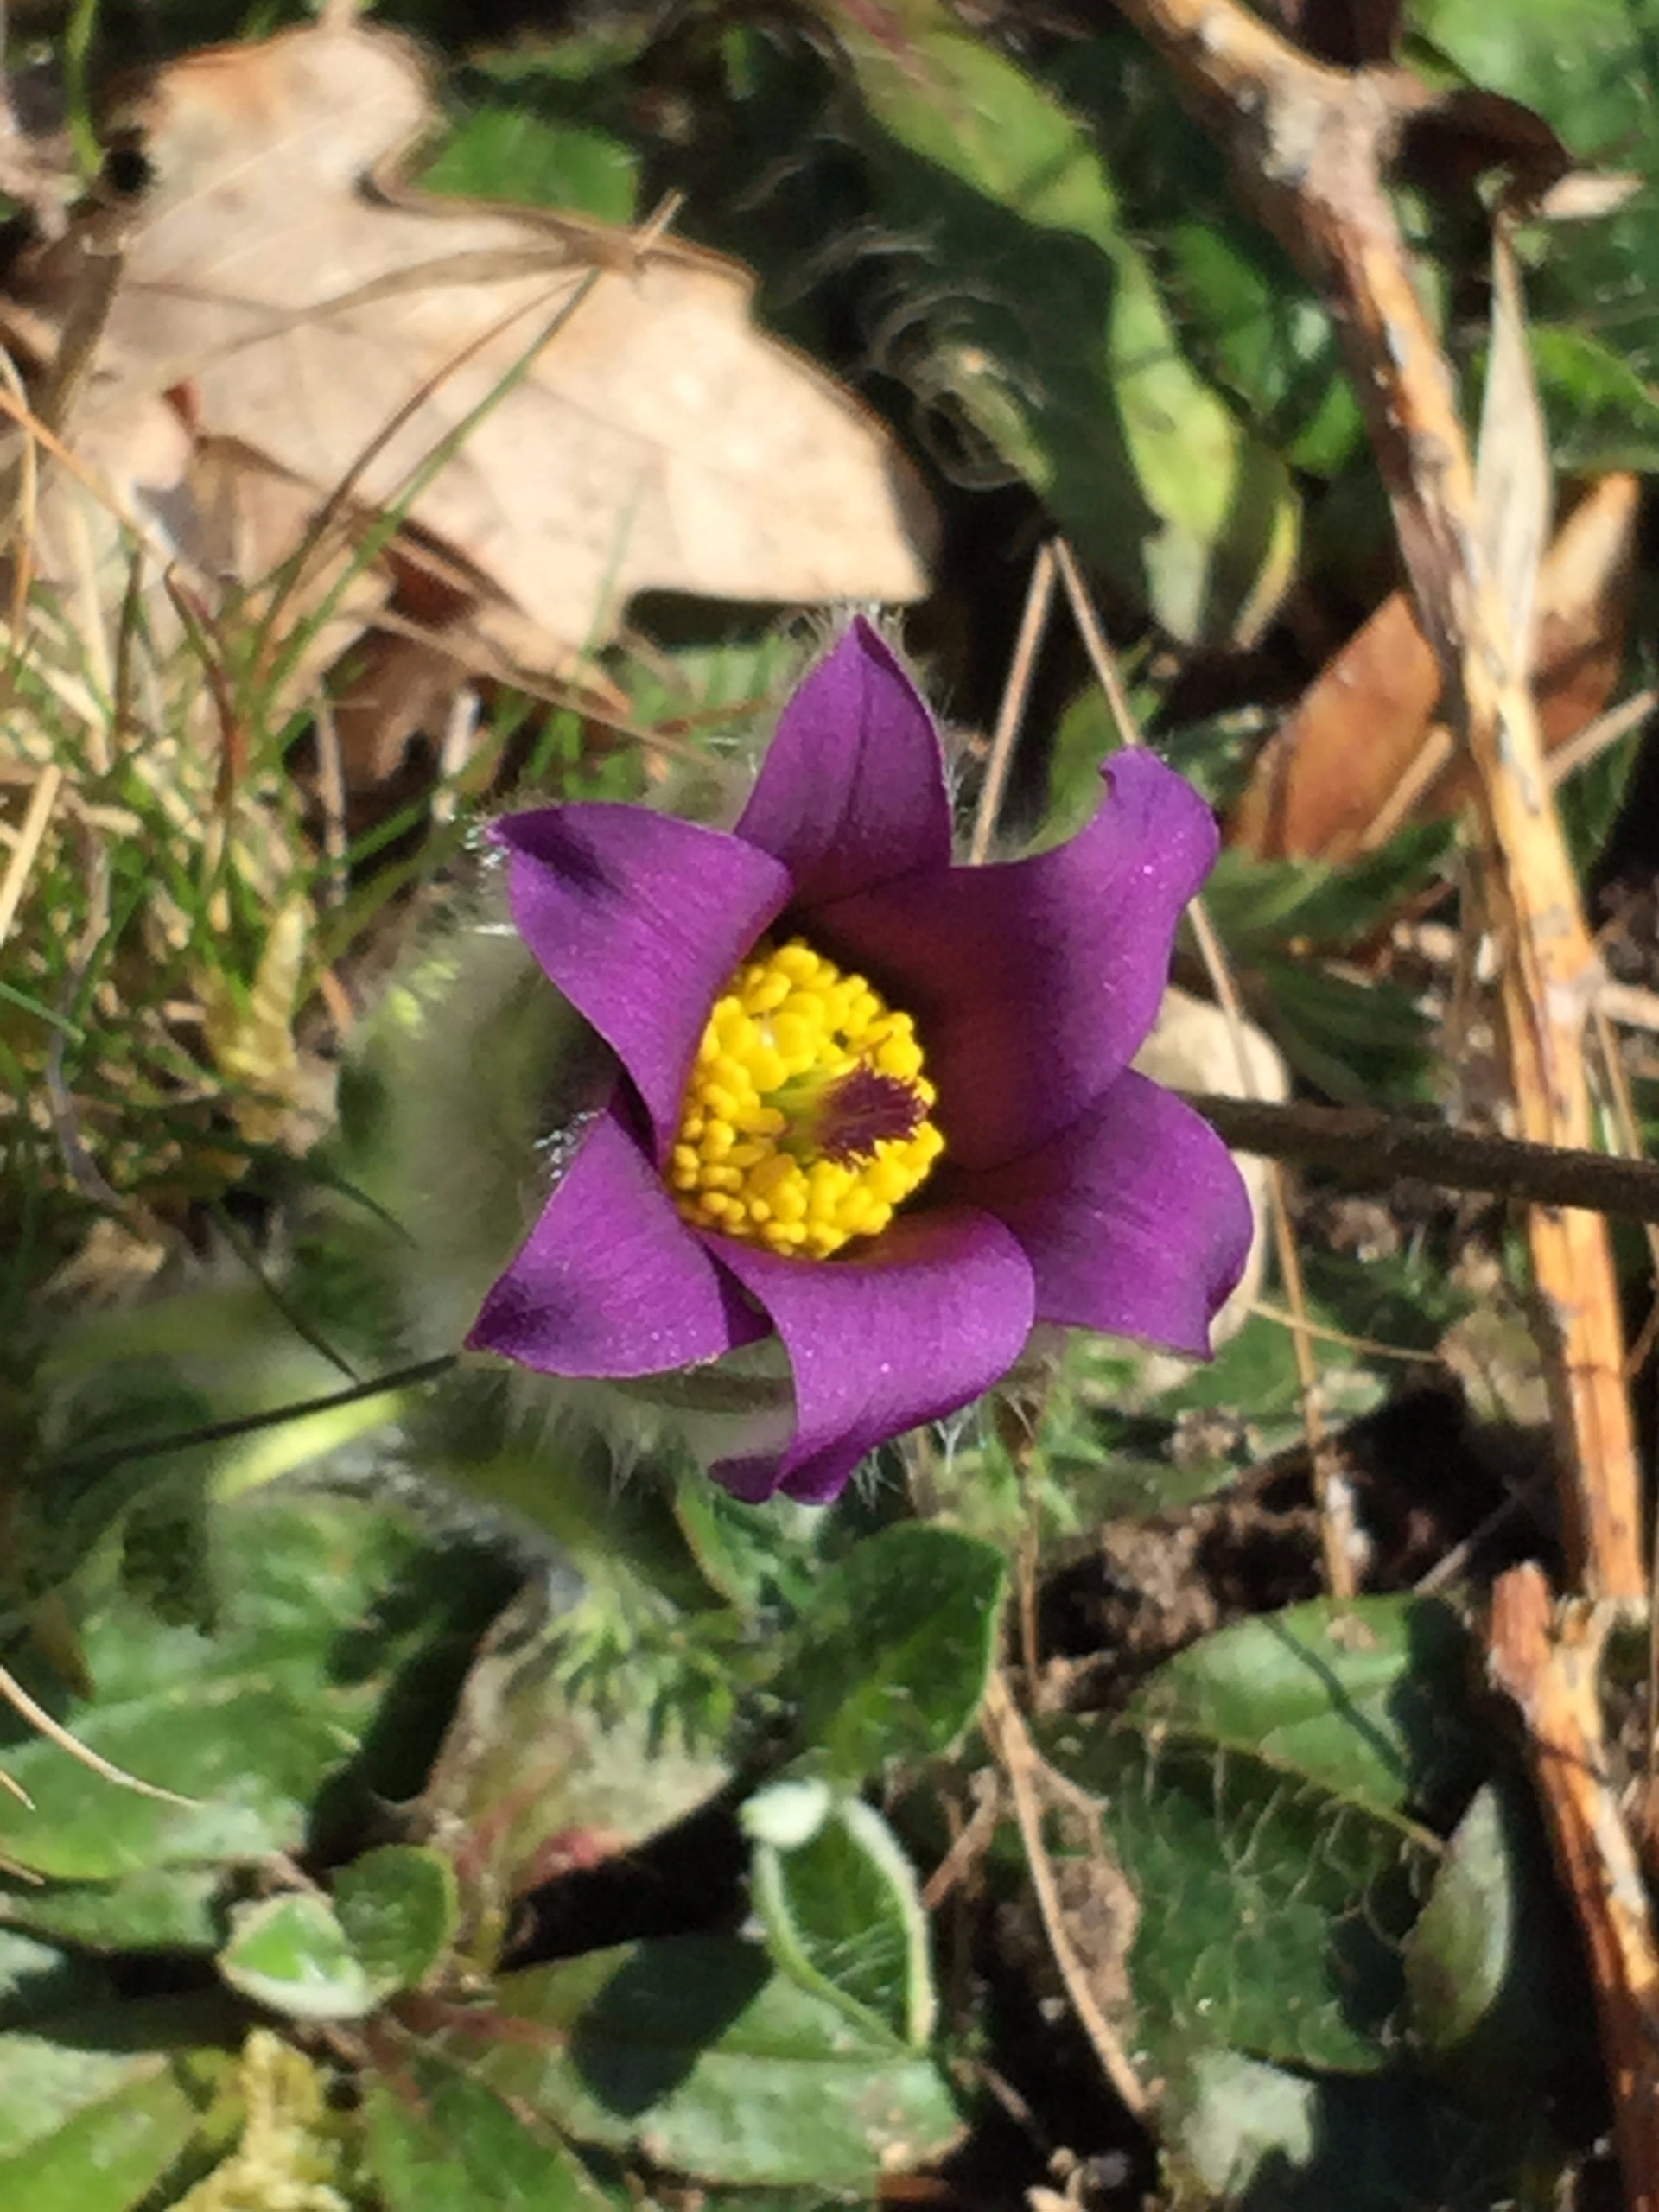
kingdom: Plantae
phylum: Tracheophyta
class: Magnoliopsida
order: Ranunculales
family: Ranunculaceae
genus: Pulsatilla
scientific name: Pulsatilla vulgaris
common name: Opret kobjælde
